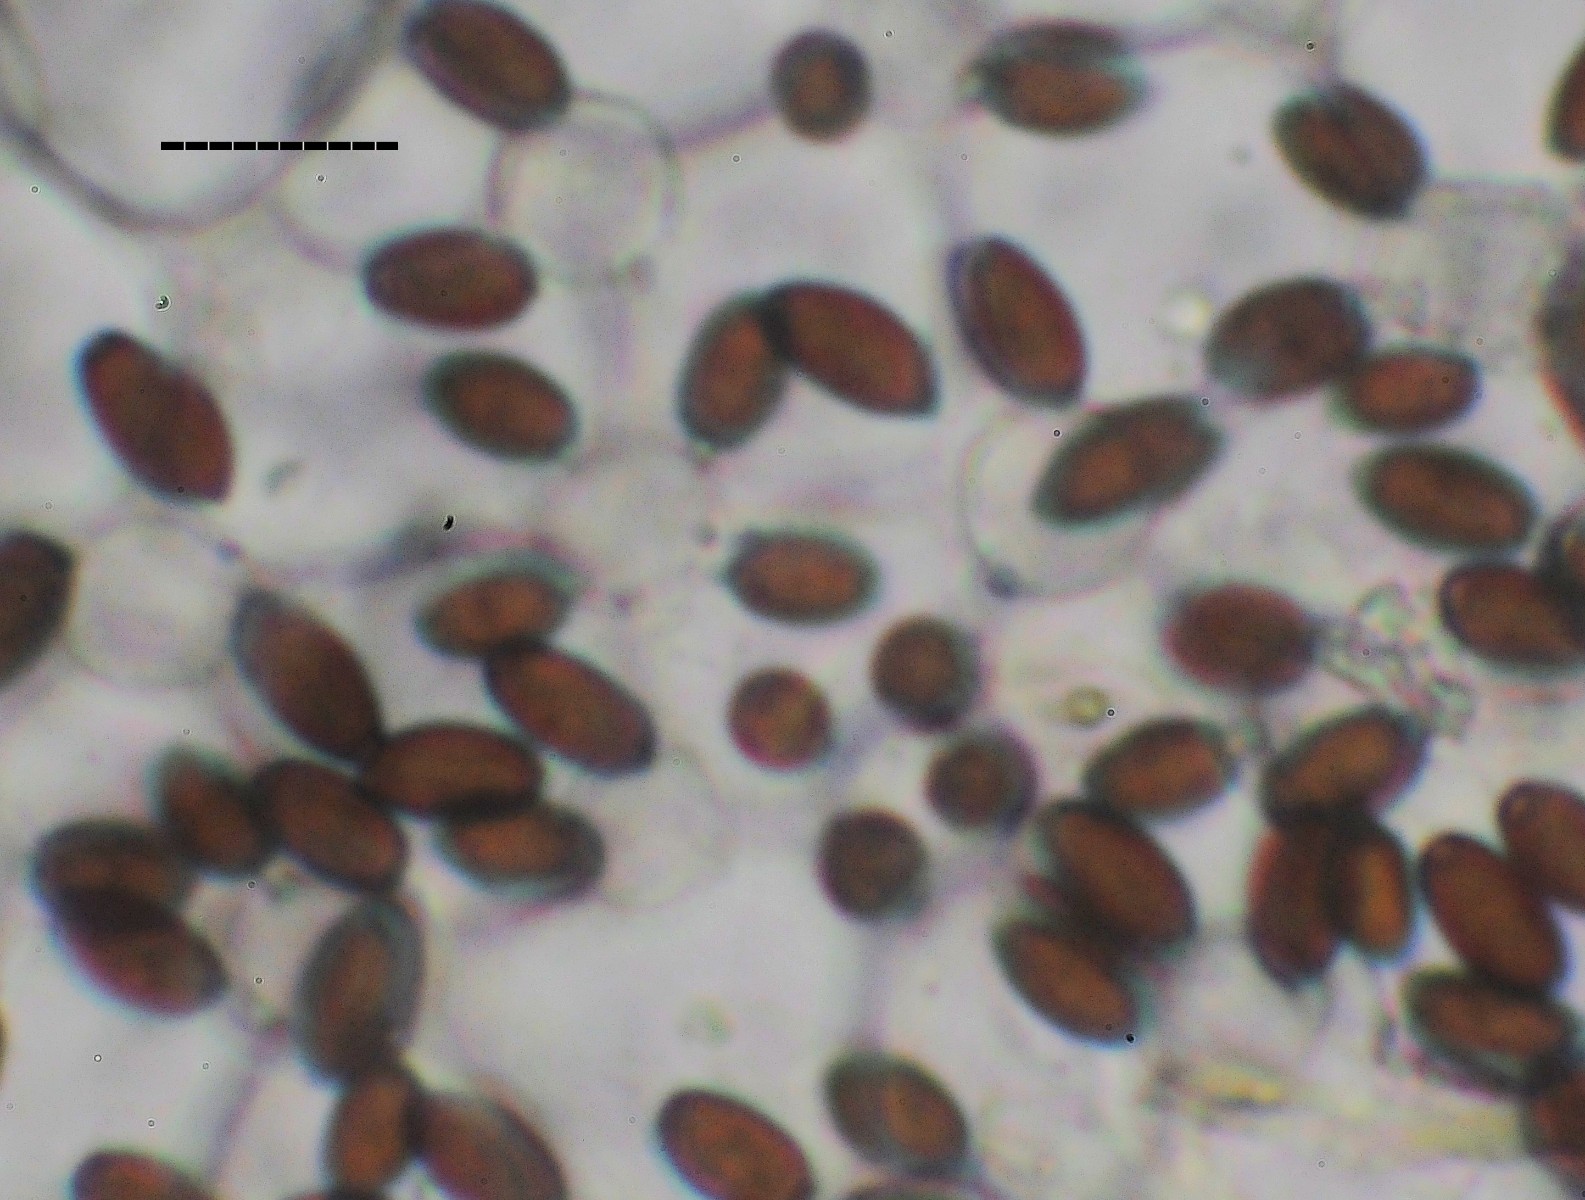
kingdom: Fungi
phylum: Basidiomycota
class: Agaricomycetes
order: Agaricales
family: Psathyrellaceae
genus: Coprinopsis
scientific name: Coprinopsis acuminata
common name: kegle-blækhat
